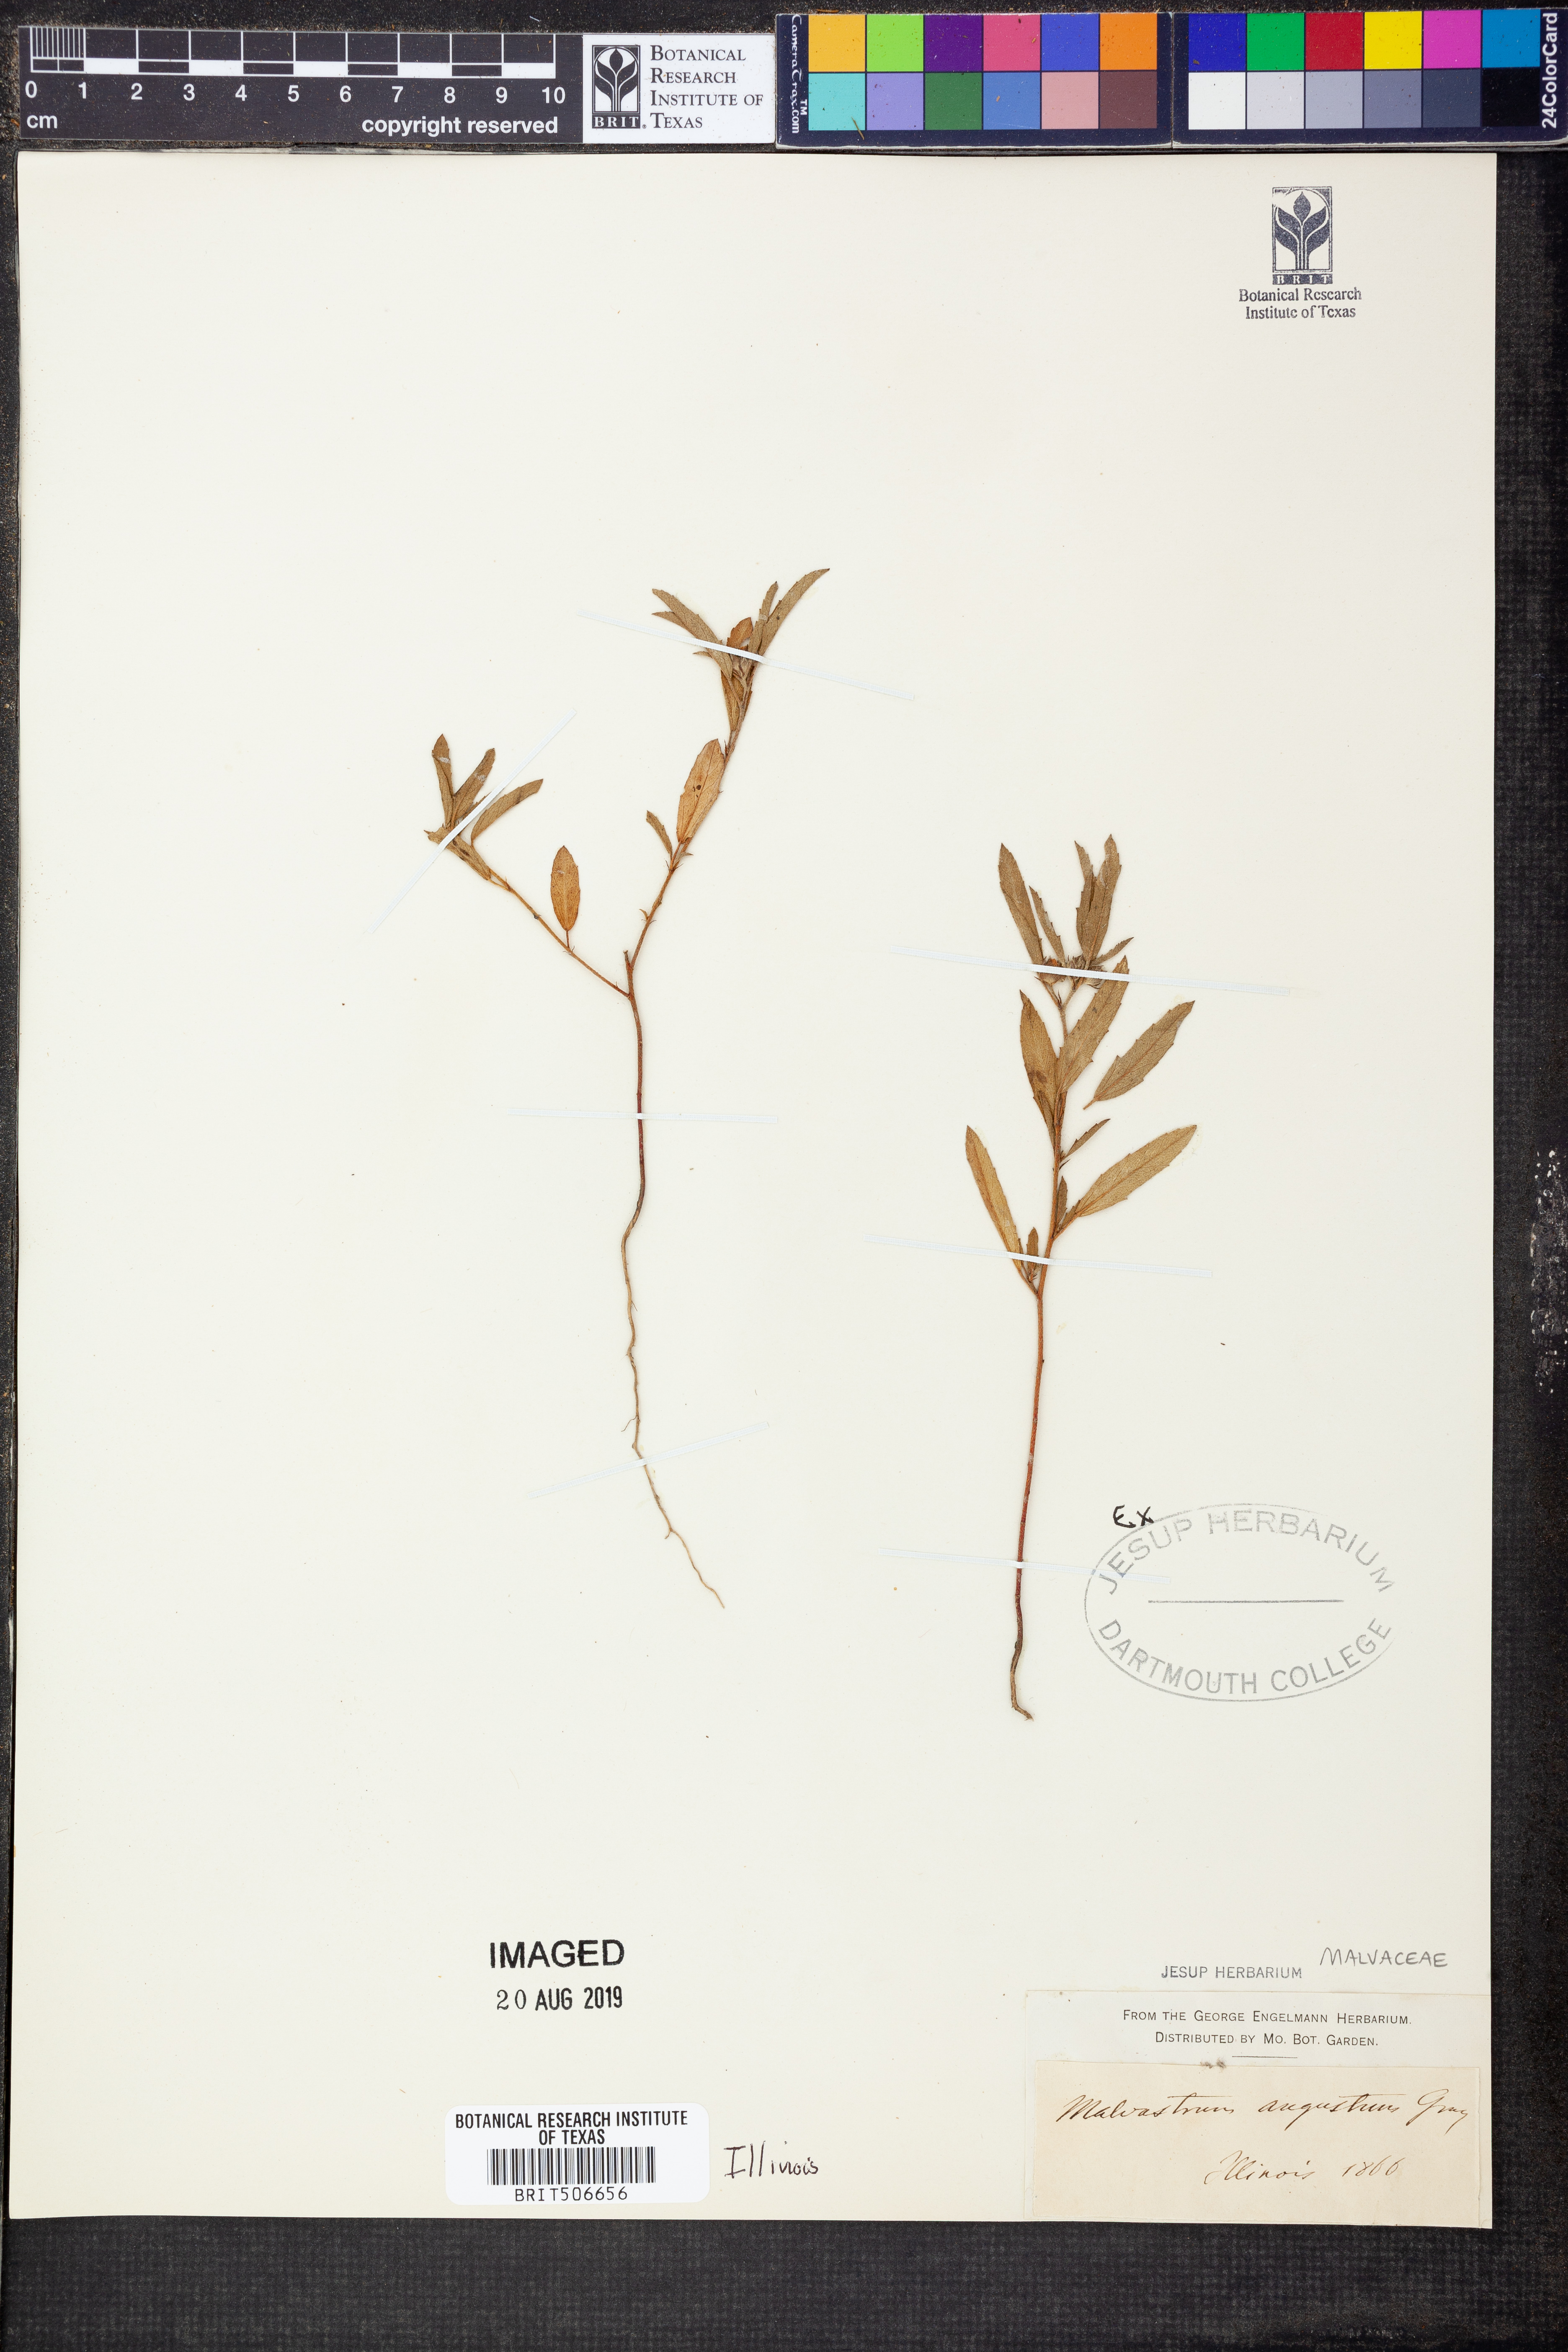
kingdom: Plantae
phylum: Tracheophyta
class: Magnoliopsida
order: Malvales
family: Malvaceae
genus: Malvastrum
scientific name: Malvastrum hispidum
